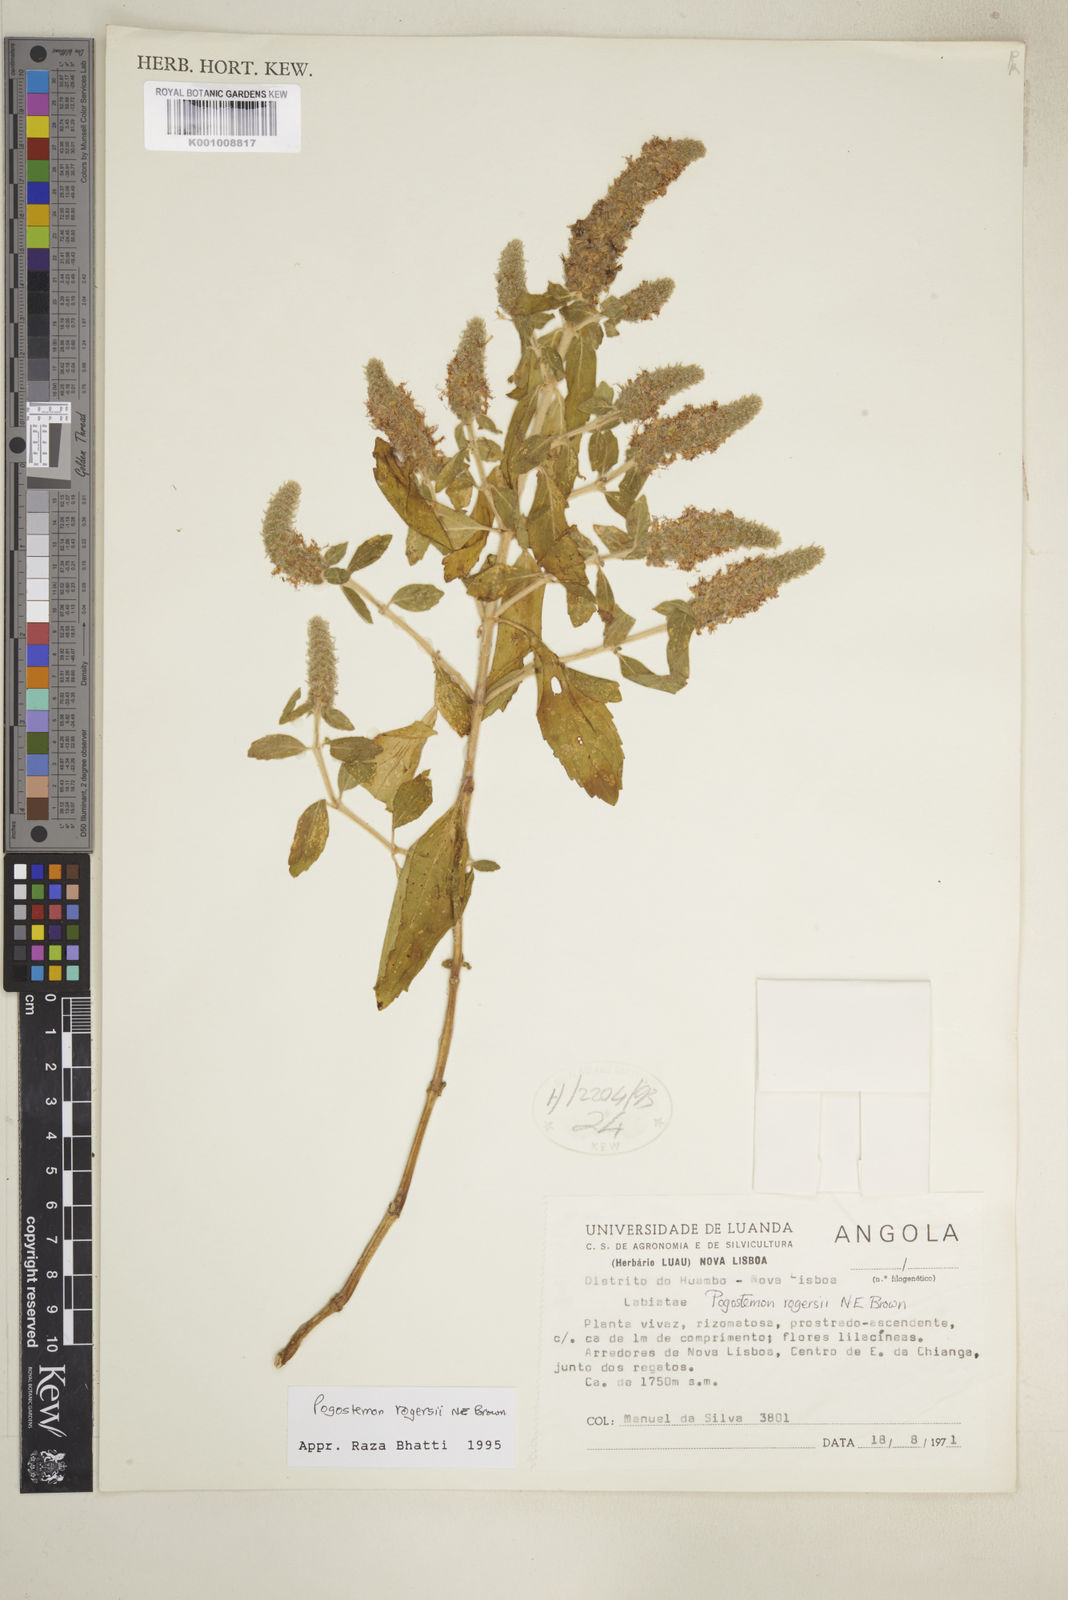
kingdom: Plantae
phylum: Tracheophyta
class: Magnoliopsida
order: Lamiales
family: Lamiaceae
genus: Pogostemon
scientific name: Pogostemon rogersii
